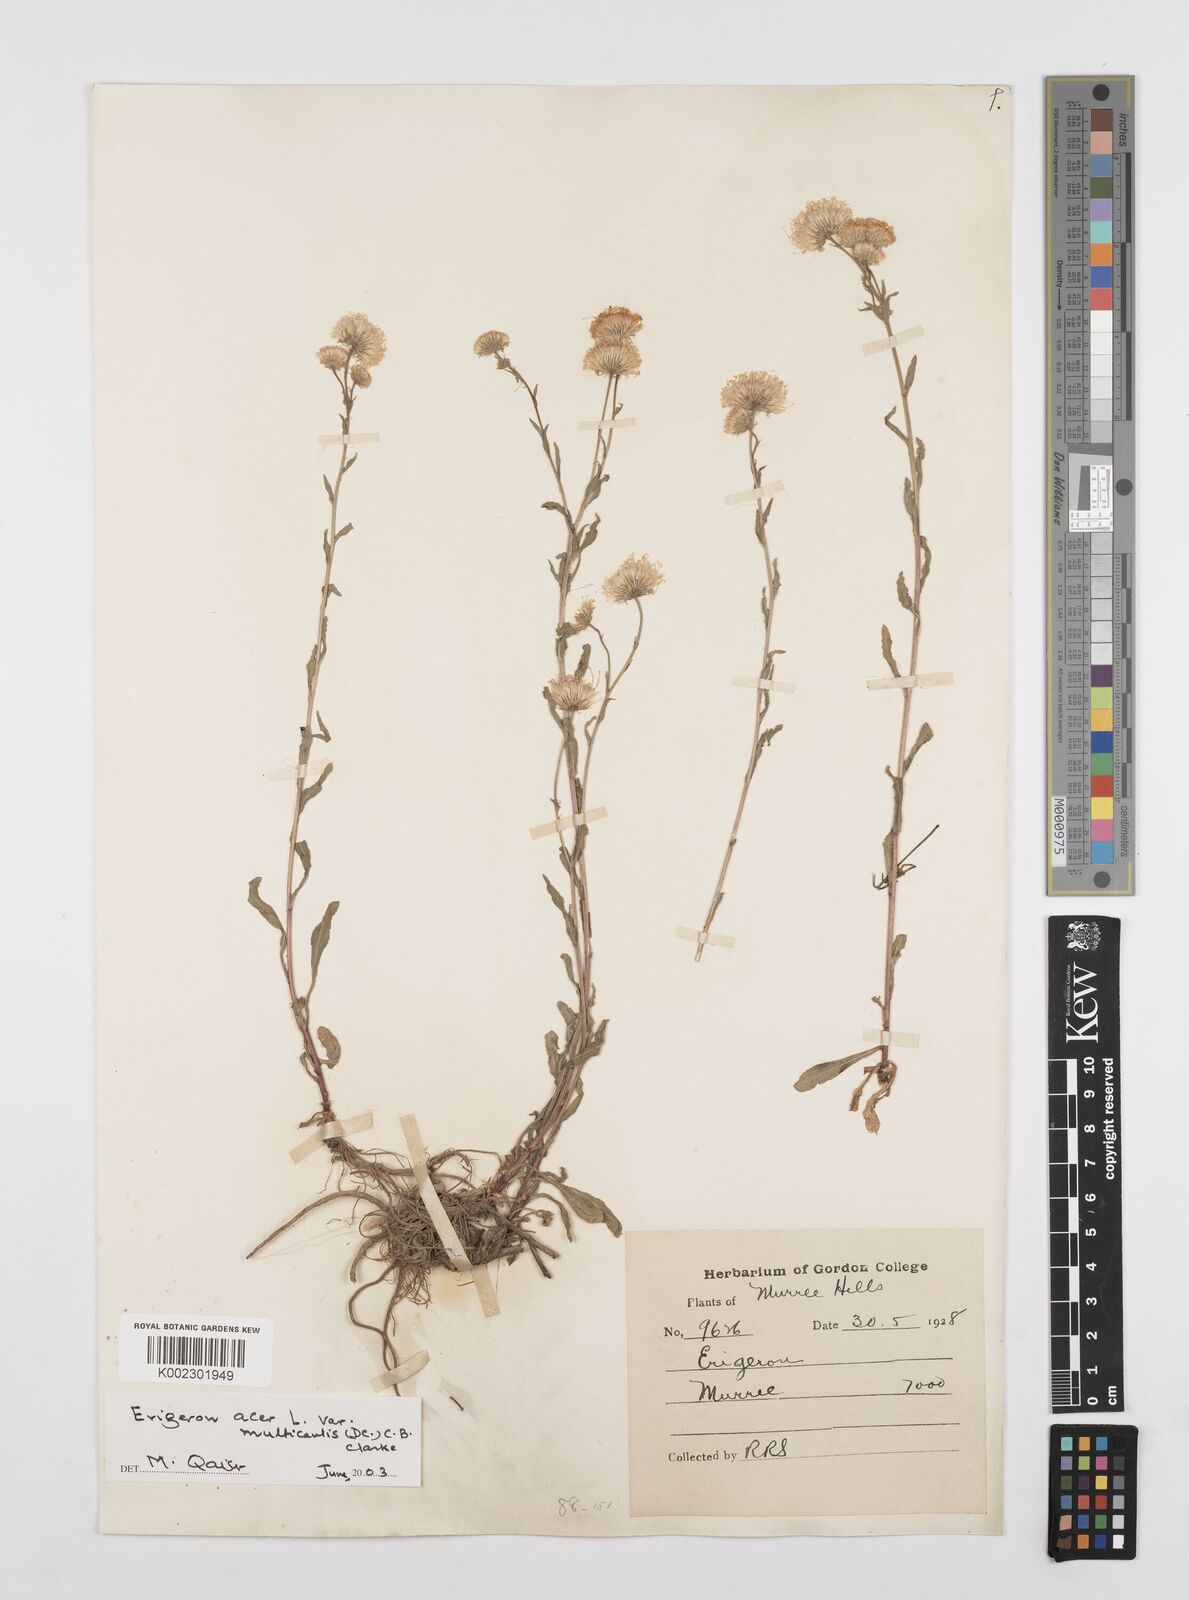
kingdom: Plantae
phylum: Tracheophyta
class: Magnoliopsida
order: Asterales
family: Asteraceae
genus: Erigeron
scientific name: Erigeron alpinus
